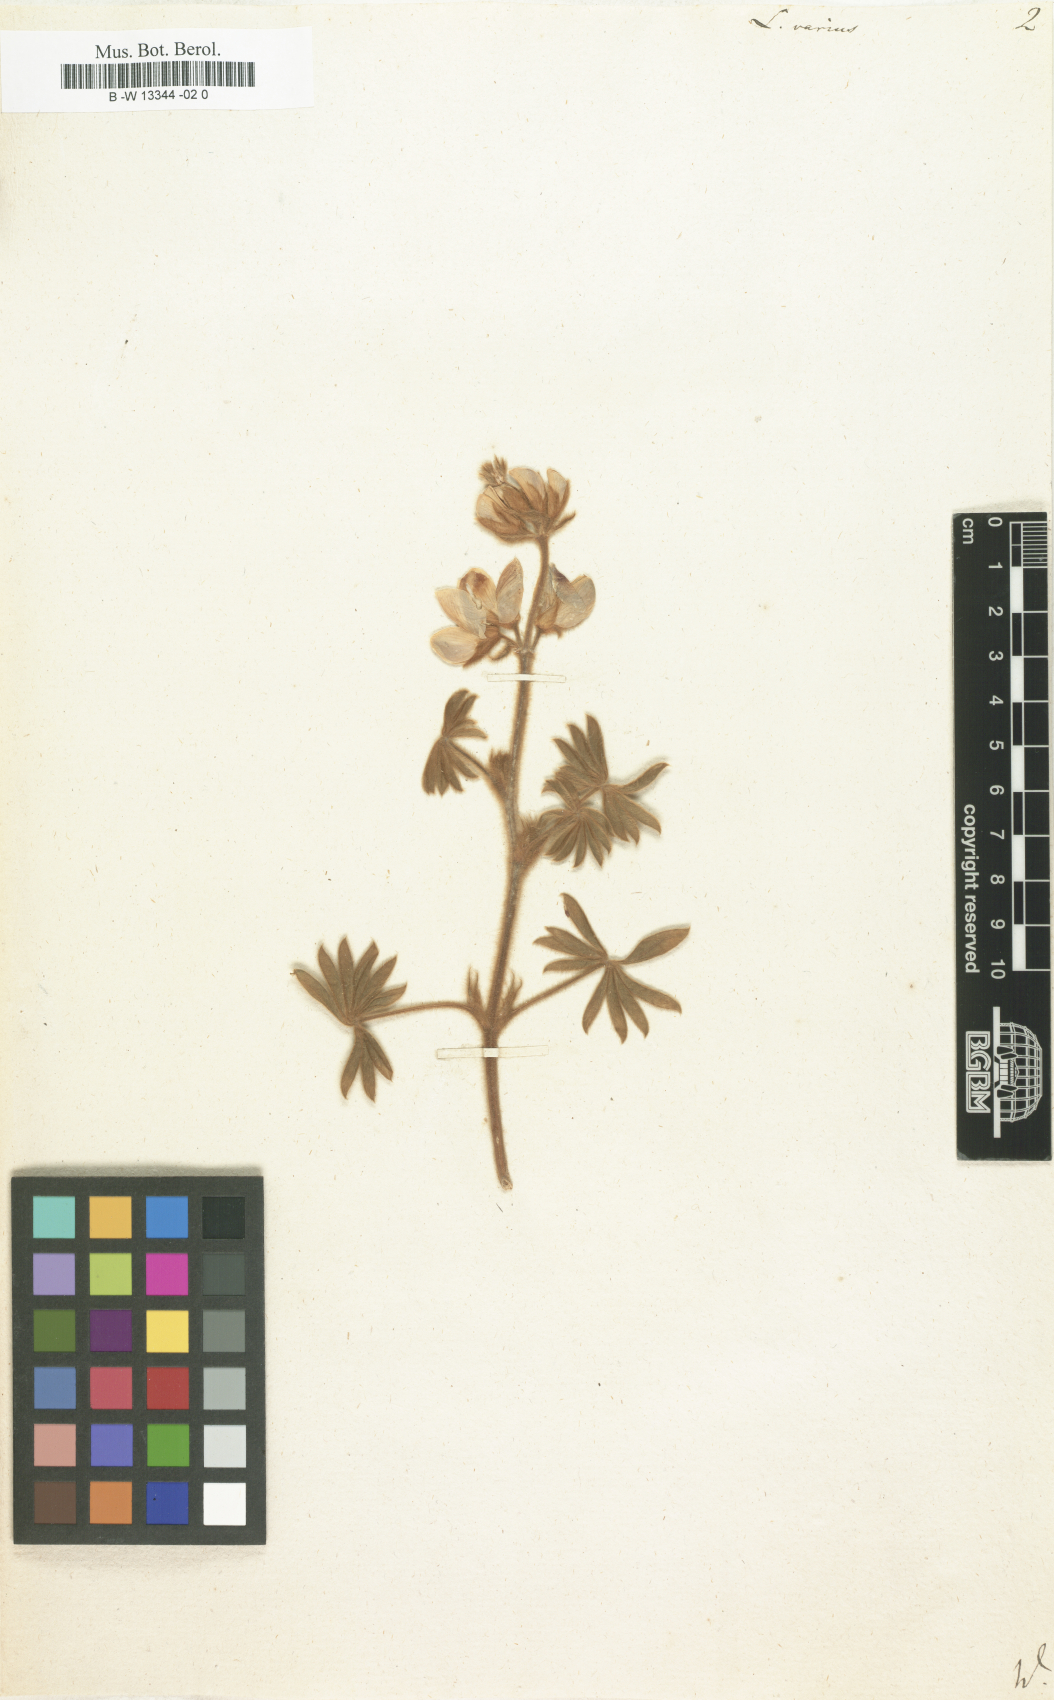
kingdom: Plantae
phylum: Tracheophyta
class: Magnoliopsida
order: Fabales
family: Fabaceae
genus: Lupinus
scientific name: Lupinus
